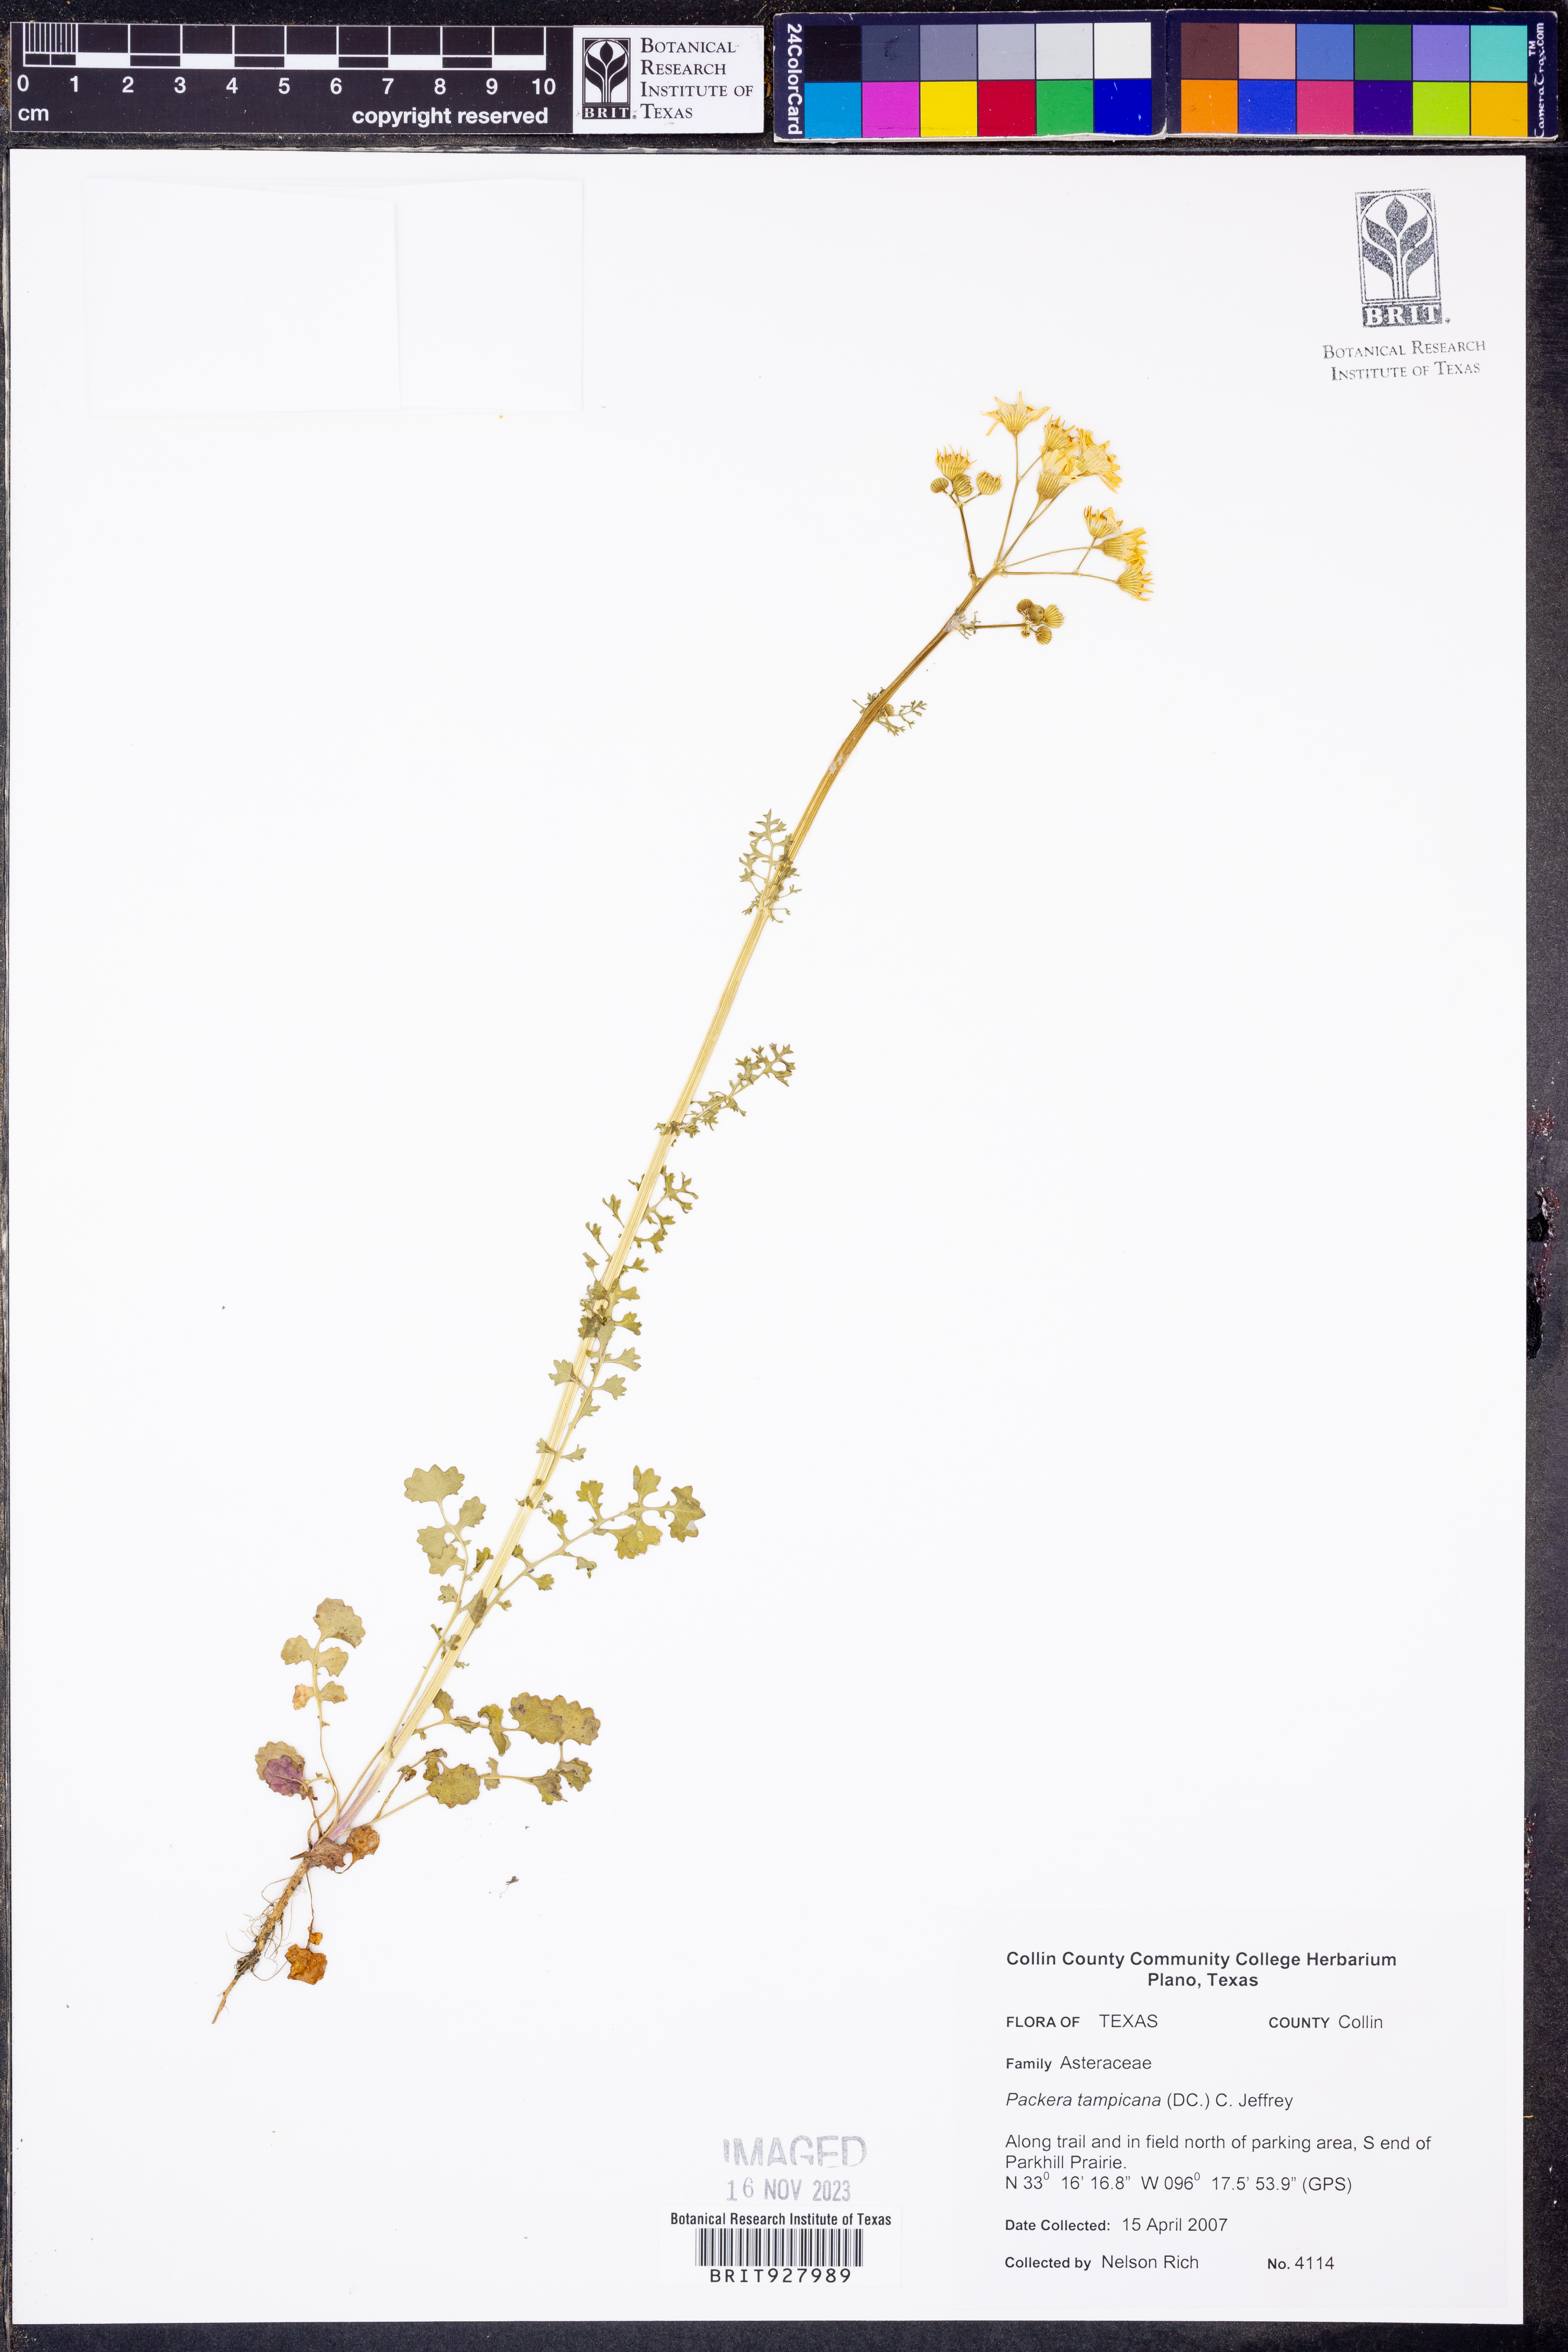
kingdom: Plantae
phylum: Tracheophyta
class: Magnoliopsida
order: Asterales
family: Asteraceae
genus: Packera
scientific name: Packera tampicana
